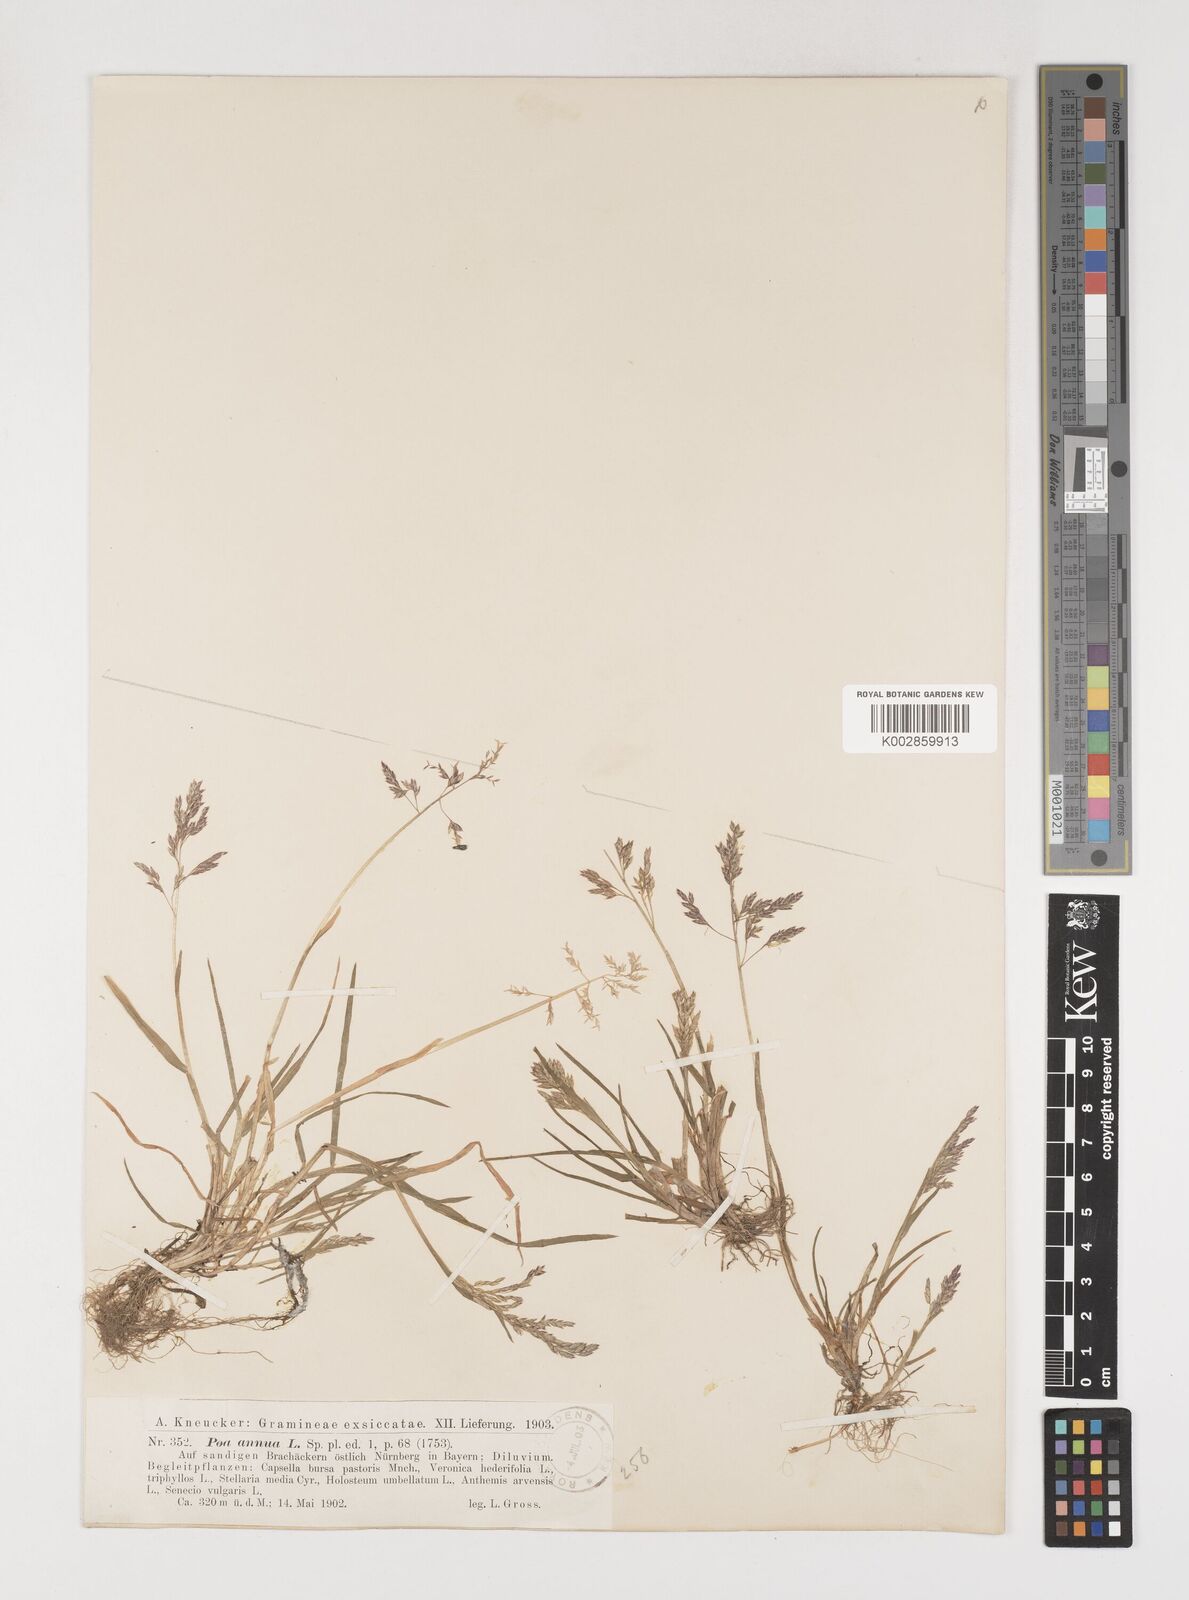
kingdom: Plantae
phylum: Tracheophyta
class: Liliopsida
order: Poales
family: Poaceae
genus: Poa
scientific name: Poa annua
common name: Annual bluegrass
